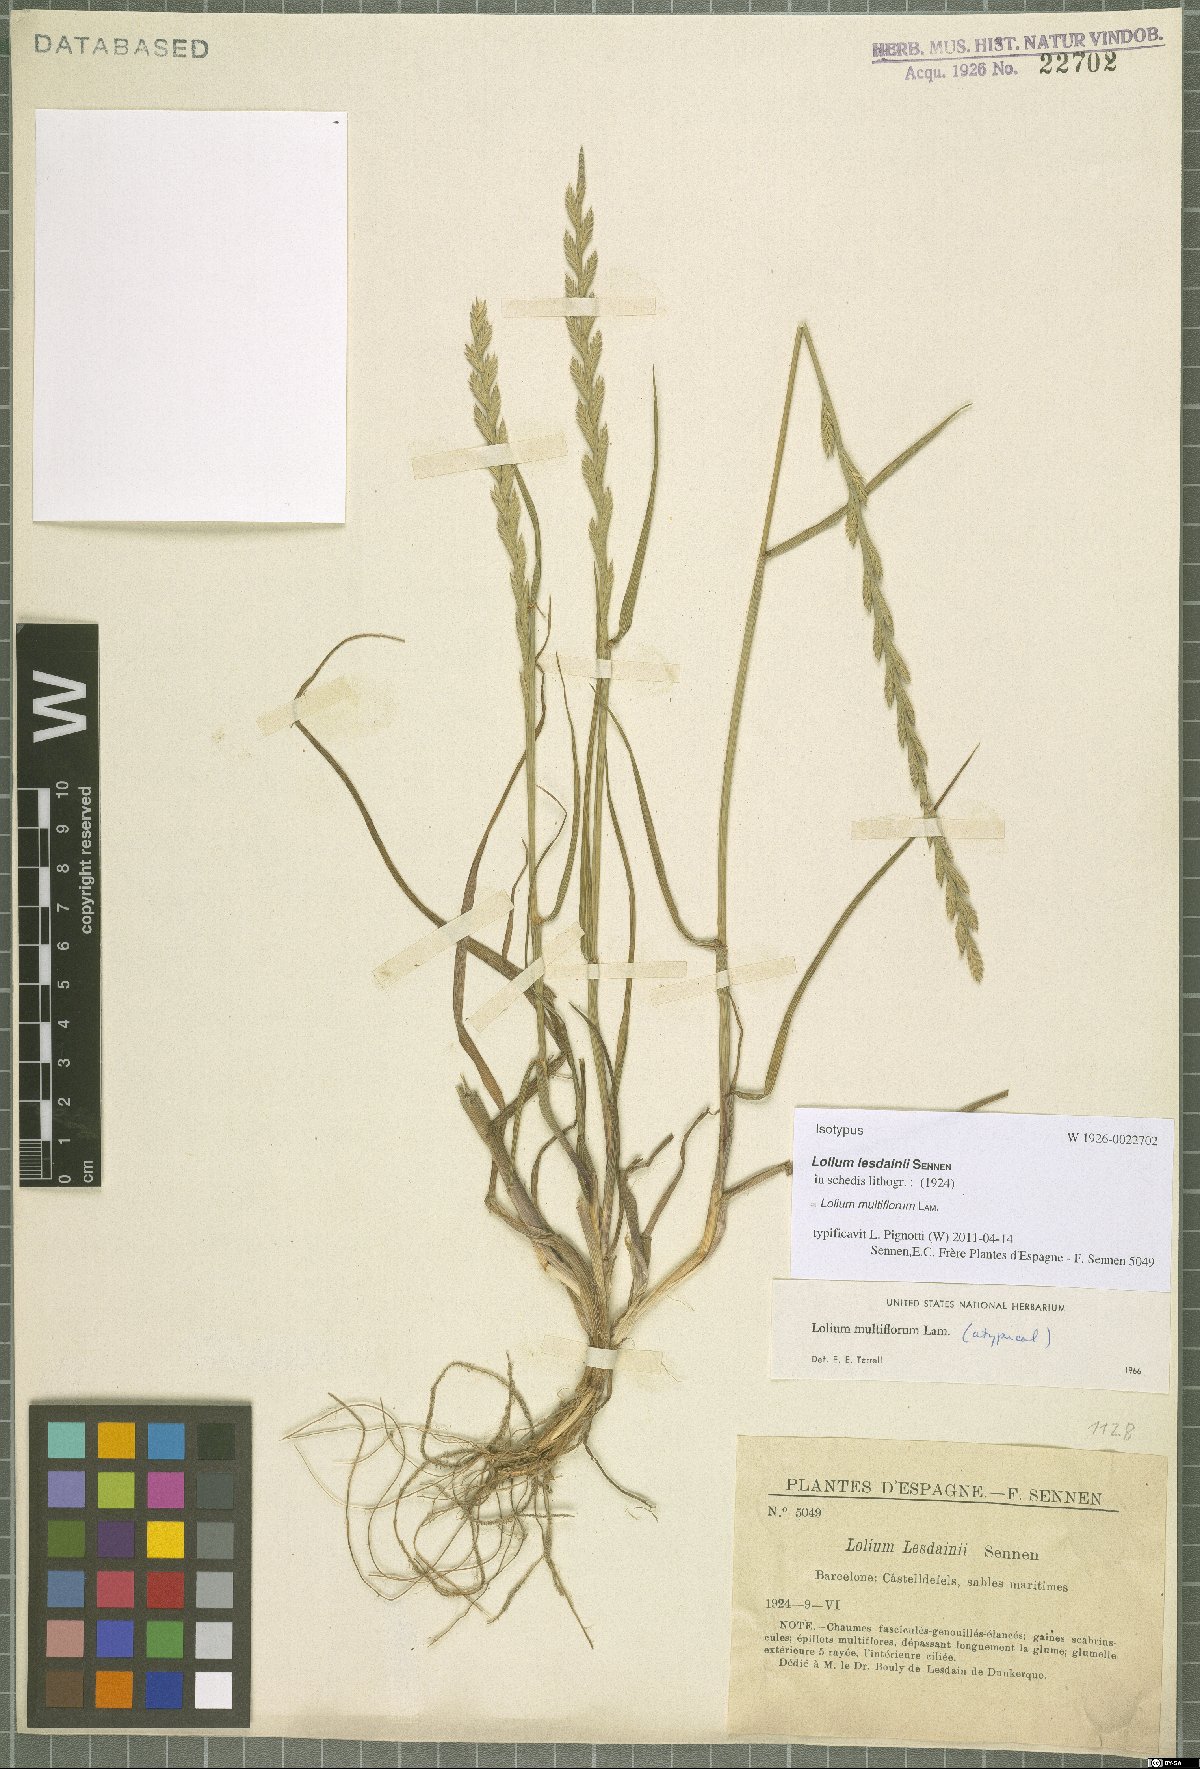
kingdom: Plantae
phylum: Tracheophyta
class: Liliopsida
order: Poales
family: Poaceae
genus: Lolium
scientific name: Lolium multiflorum
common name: Annual ryegrass
